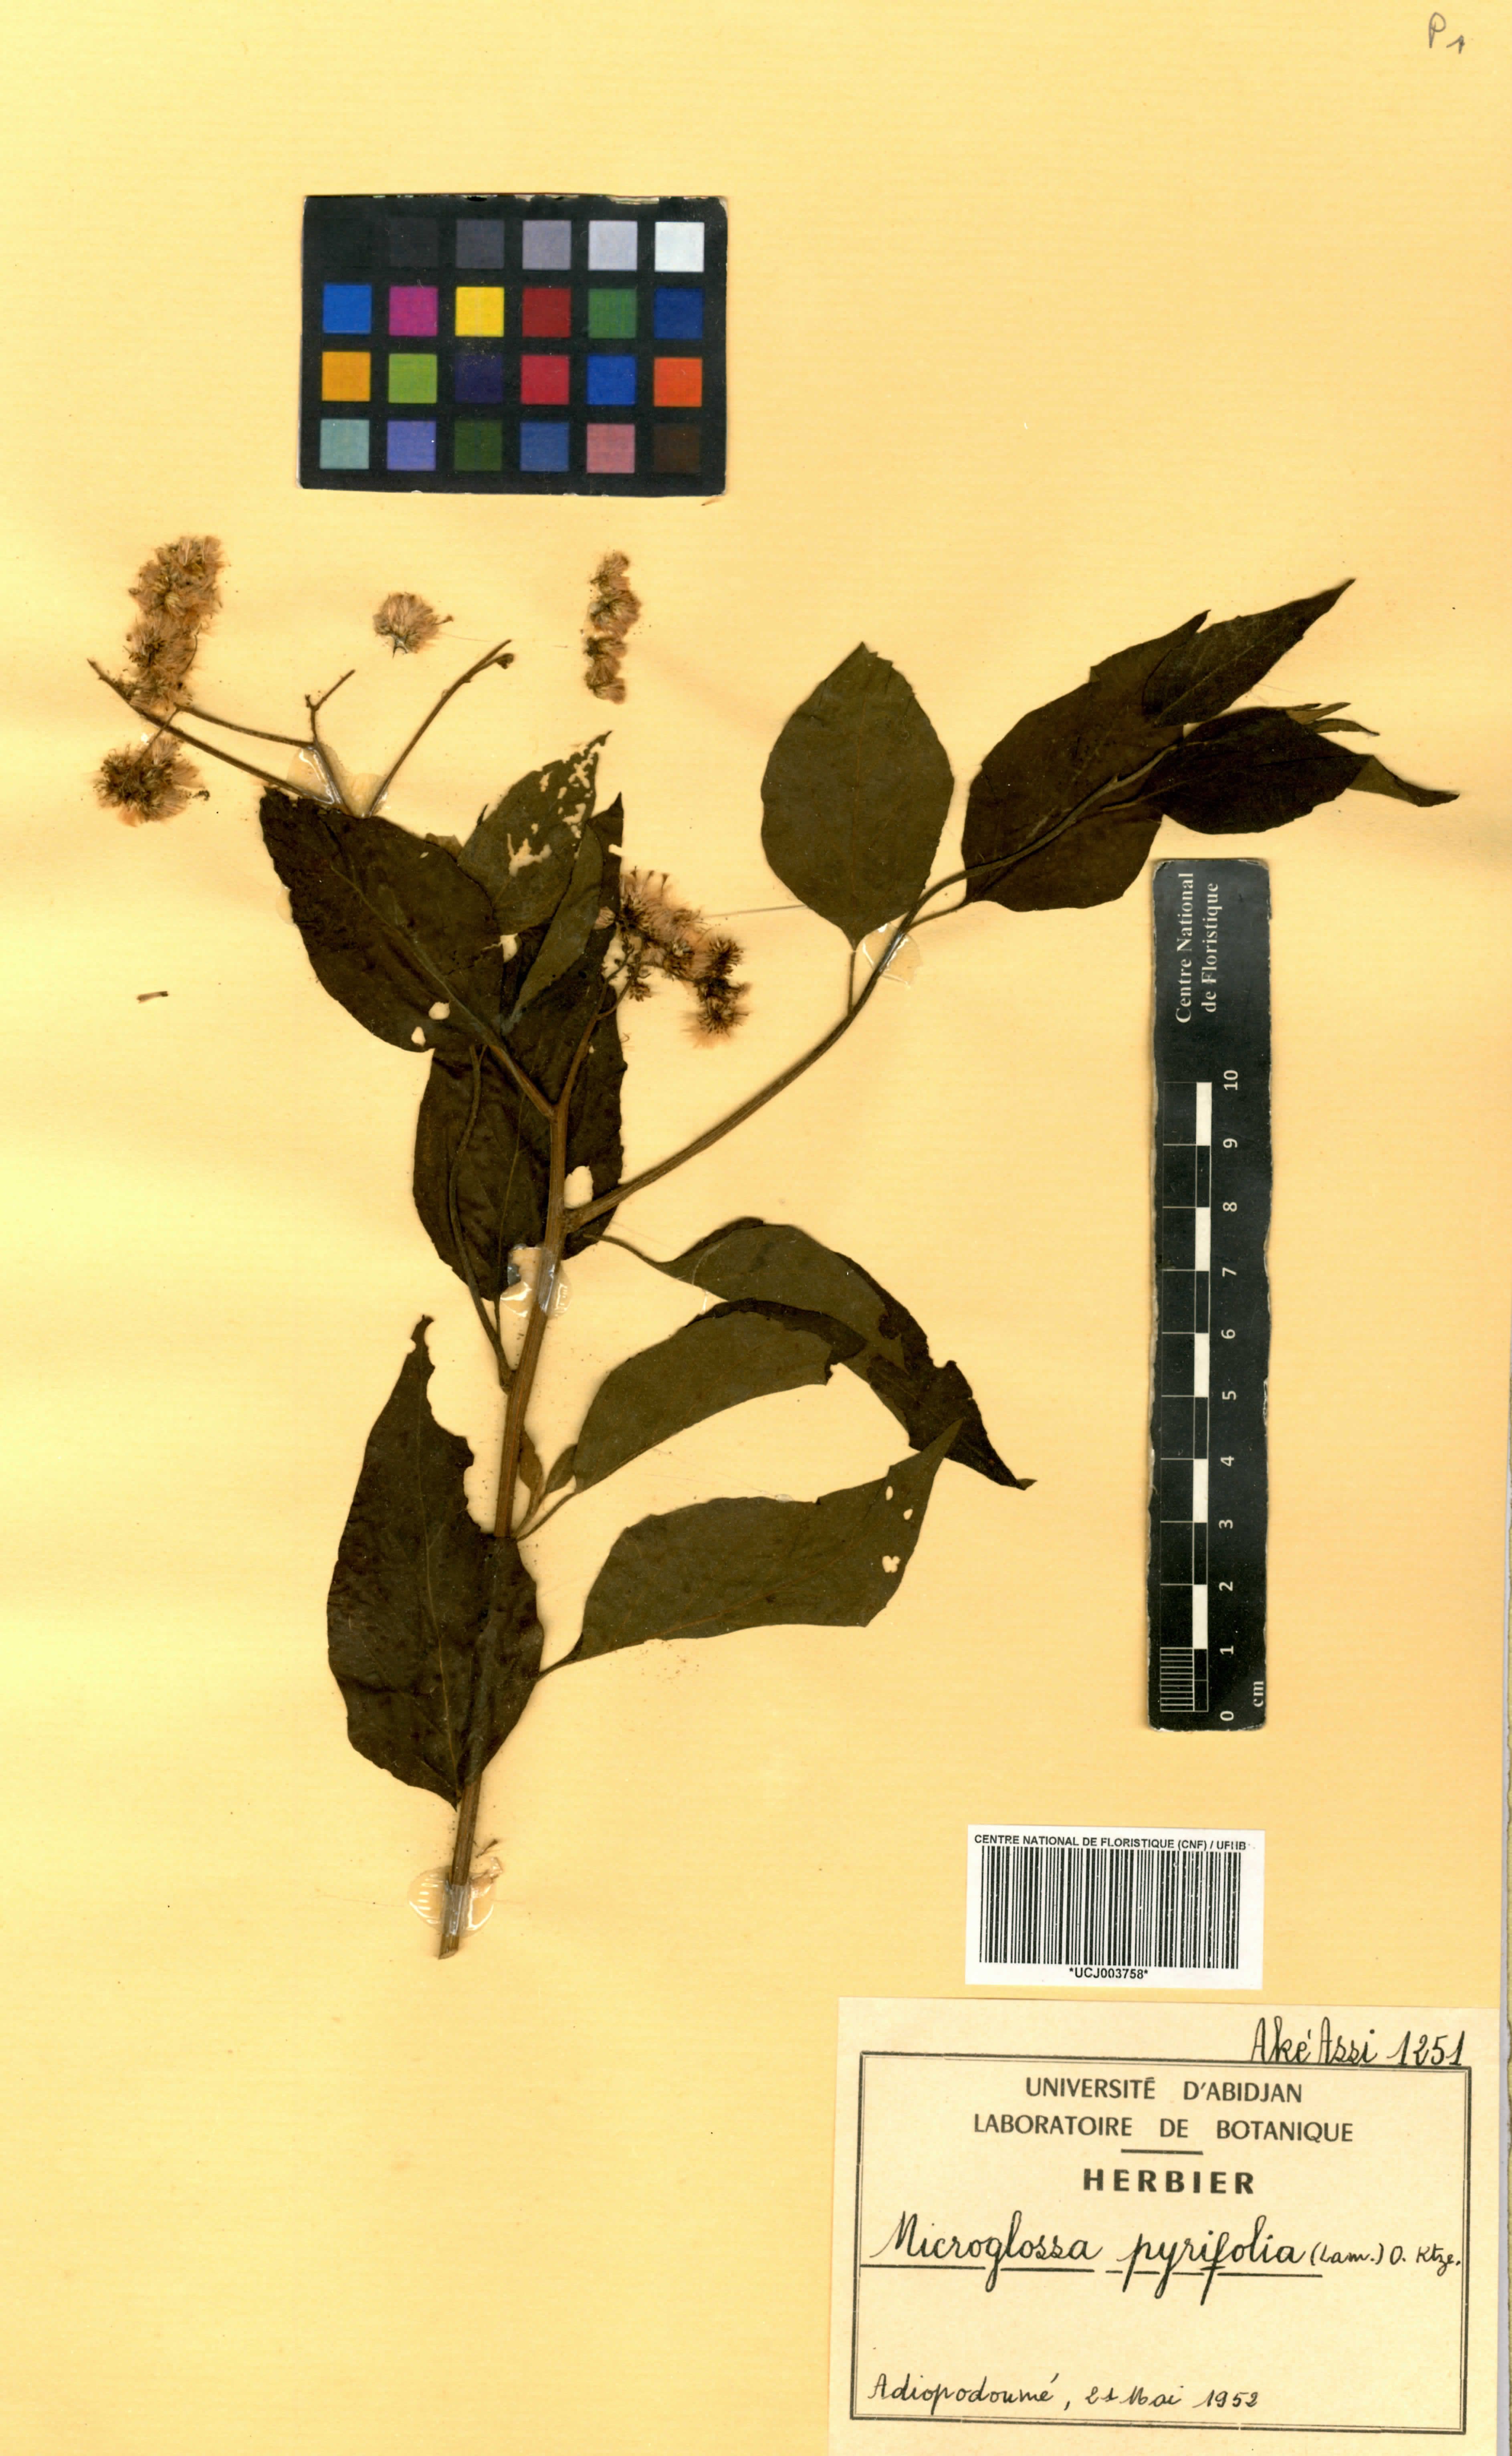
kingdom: Plantae
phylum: Tracheophyta
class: Magnoliopsida
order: Asterales
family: Asteraceae
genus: Microglossa
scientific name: Microglossa pyrifolia
